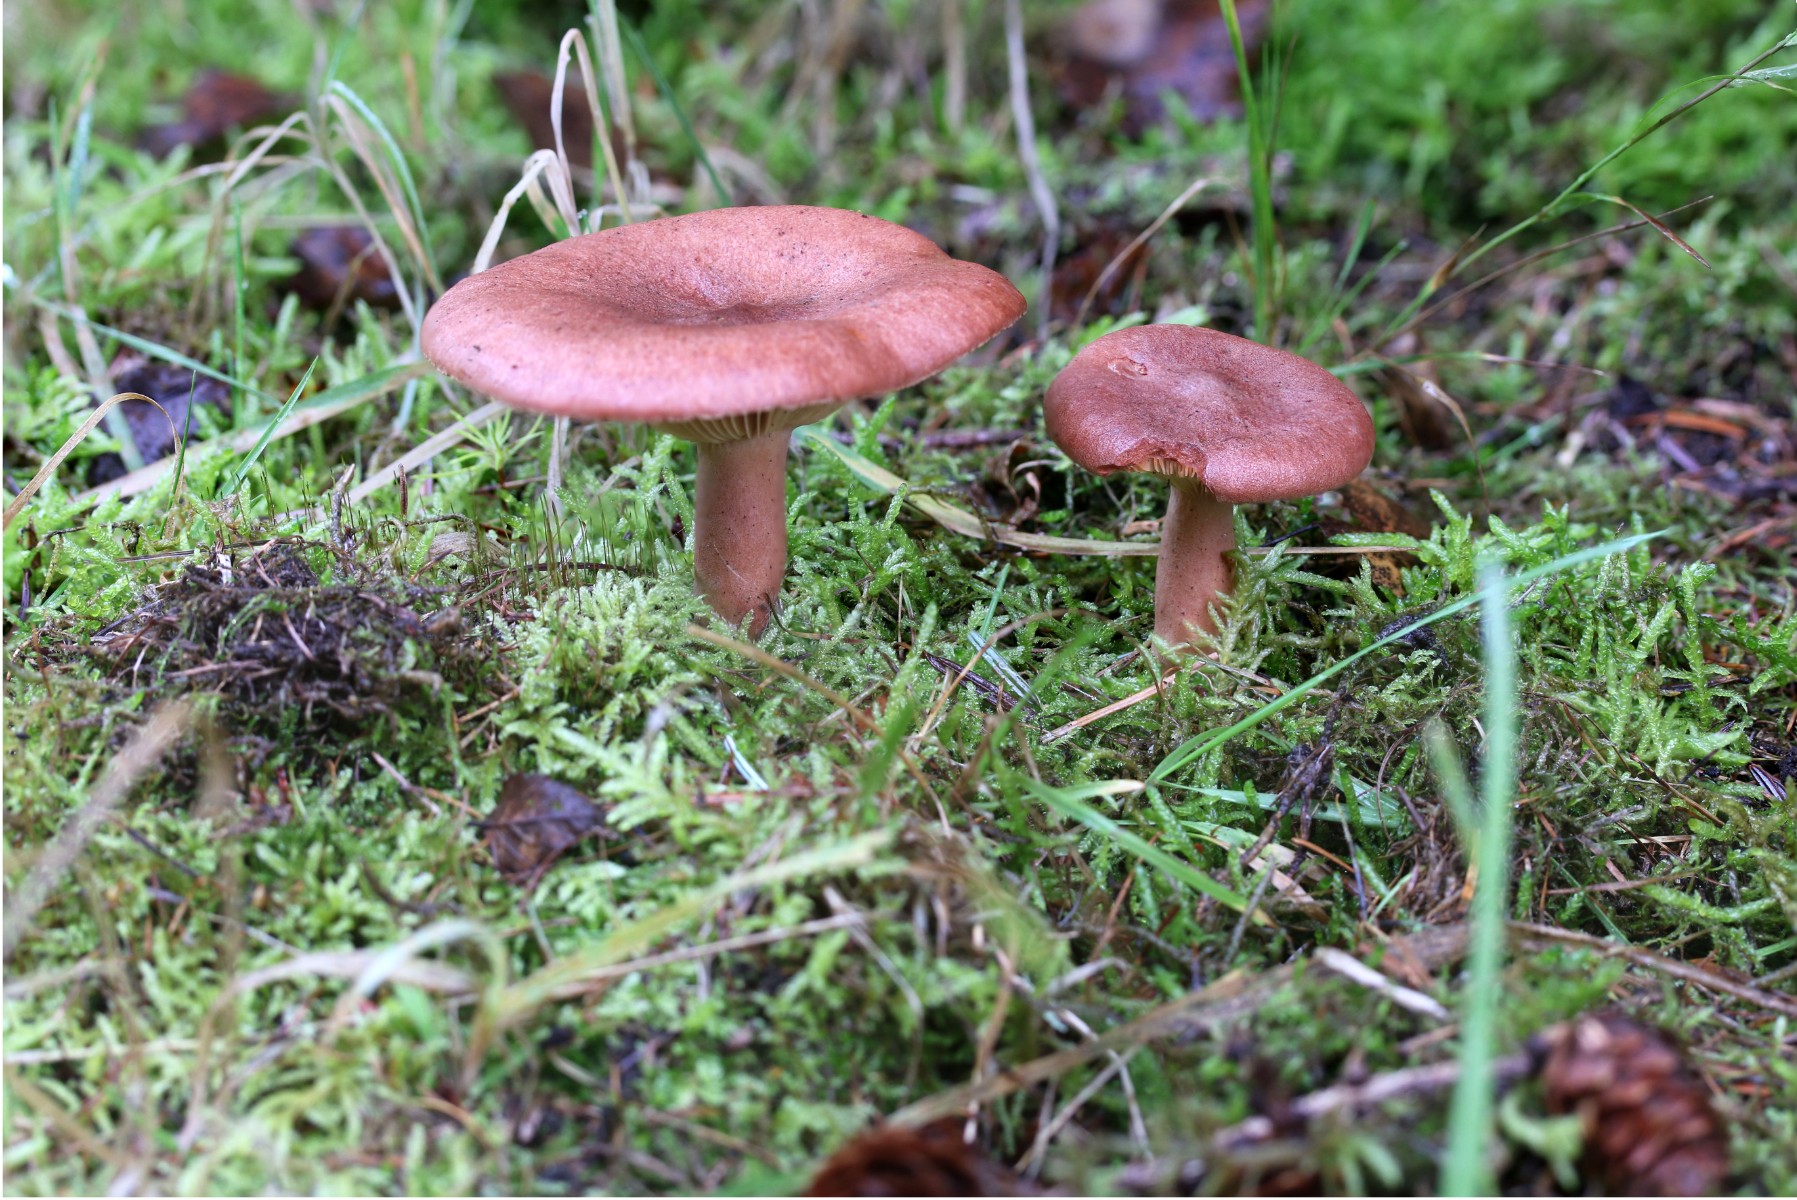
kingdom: Fungi
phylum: Basidiomycota
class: Agaricomycetes
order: Boletales
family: Boletaceae
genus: Boletus
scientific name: Boletus edulis
